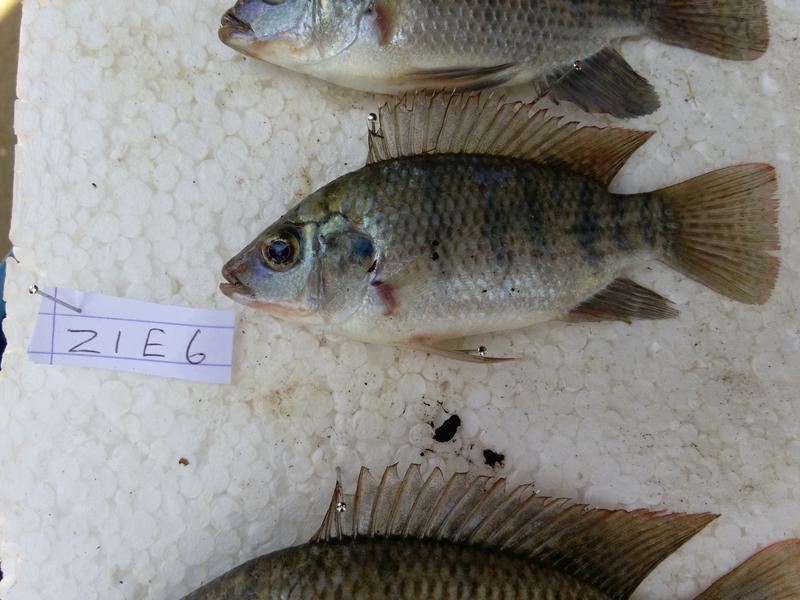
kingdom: Animalia
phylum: Chordata
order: Perciformes
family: Cichlidae
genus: Oreochromis
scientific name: Oreochromis urolepis
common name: Wami tilapia
